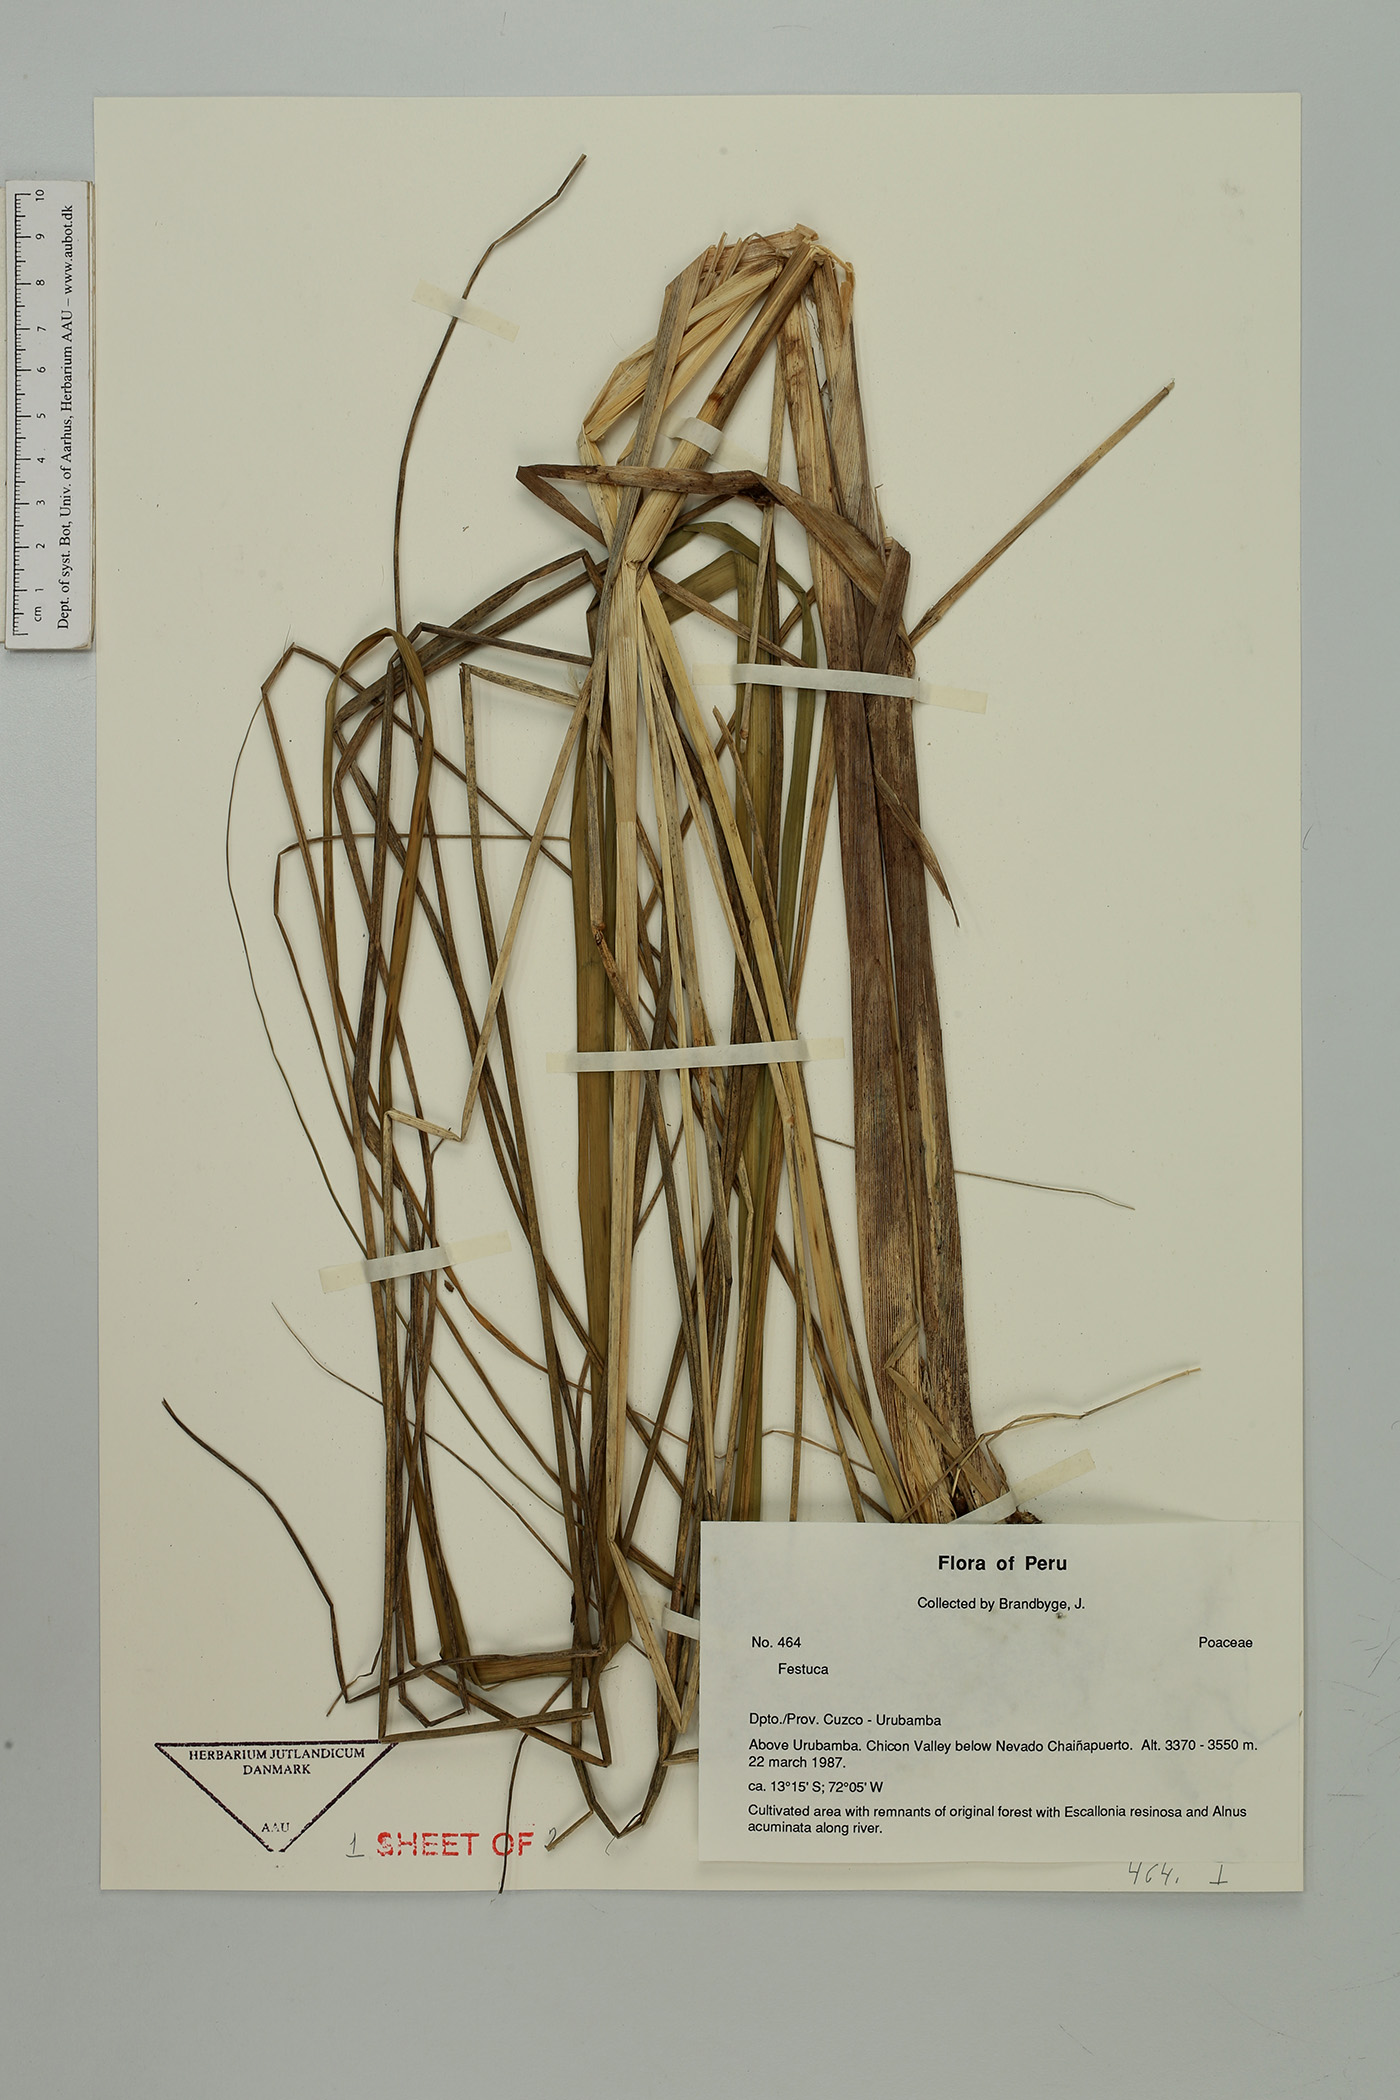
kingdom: Plantae
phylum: Tracheophyta
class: Liliopsida
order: Poales
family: Poaceae
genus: Festuca
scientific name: Festuca urubambana
